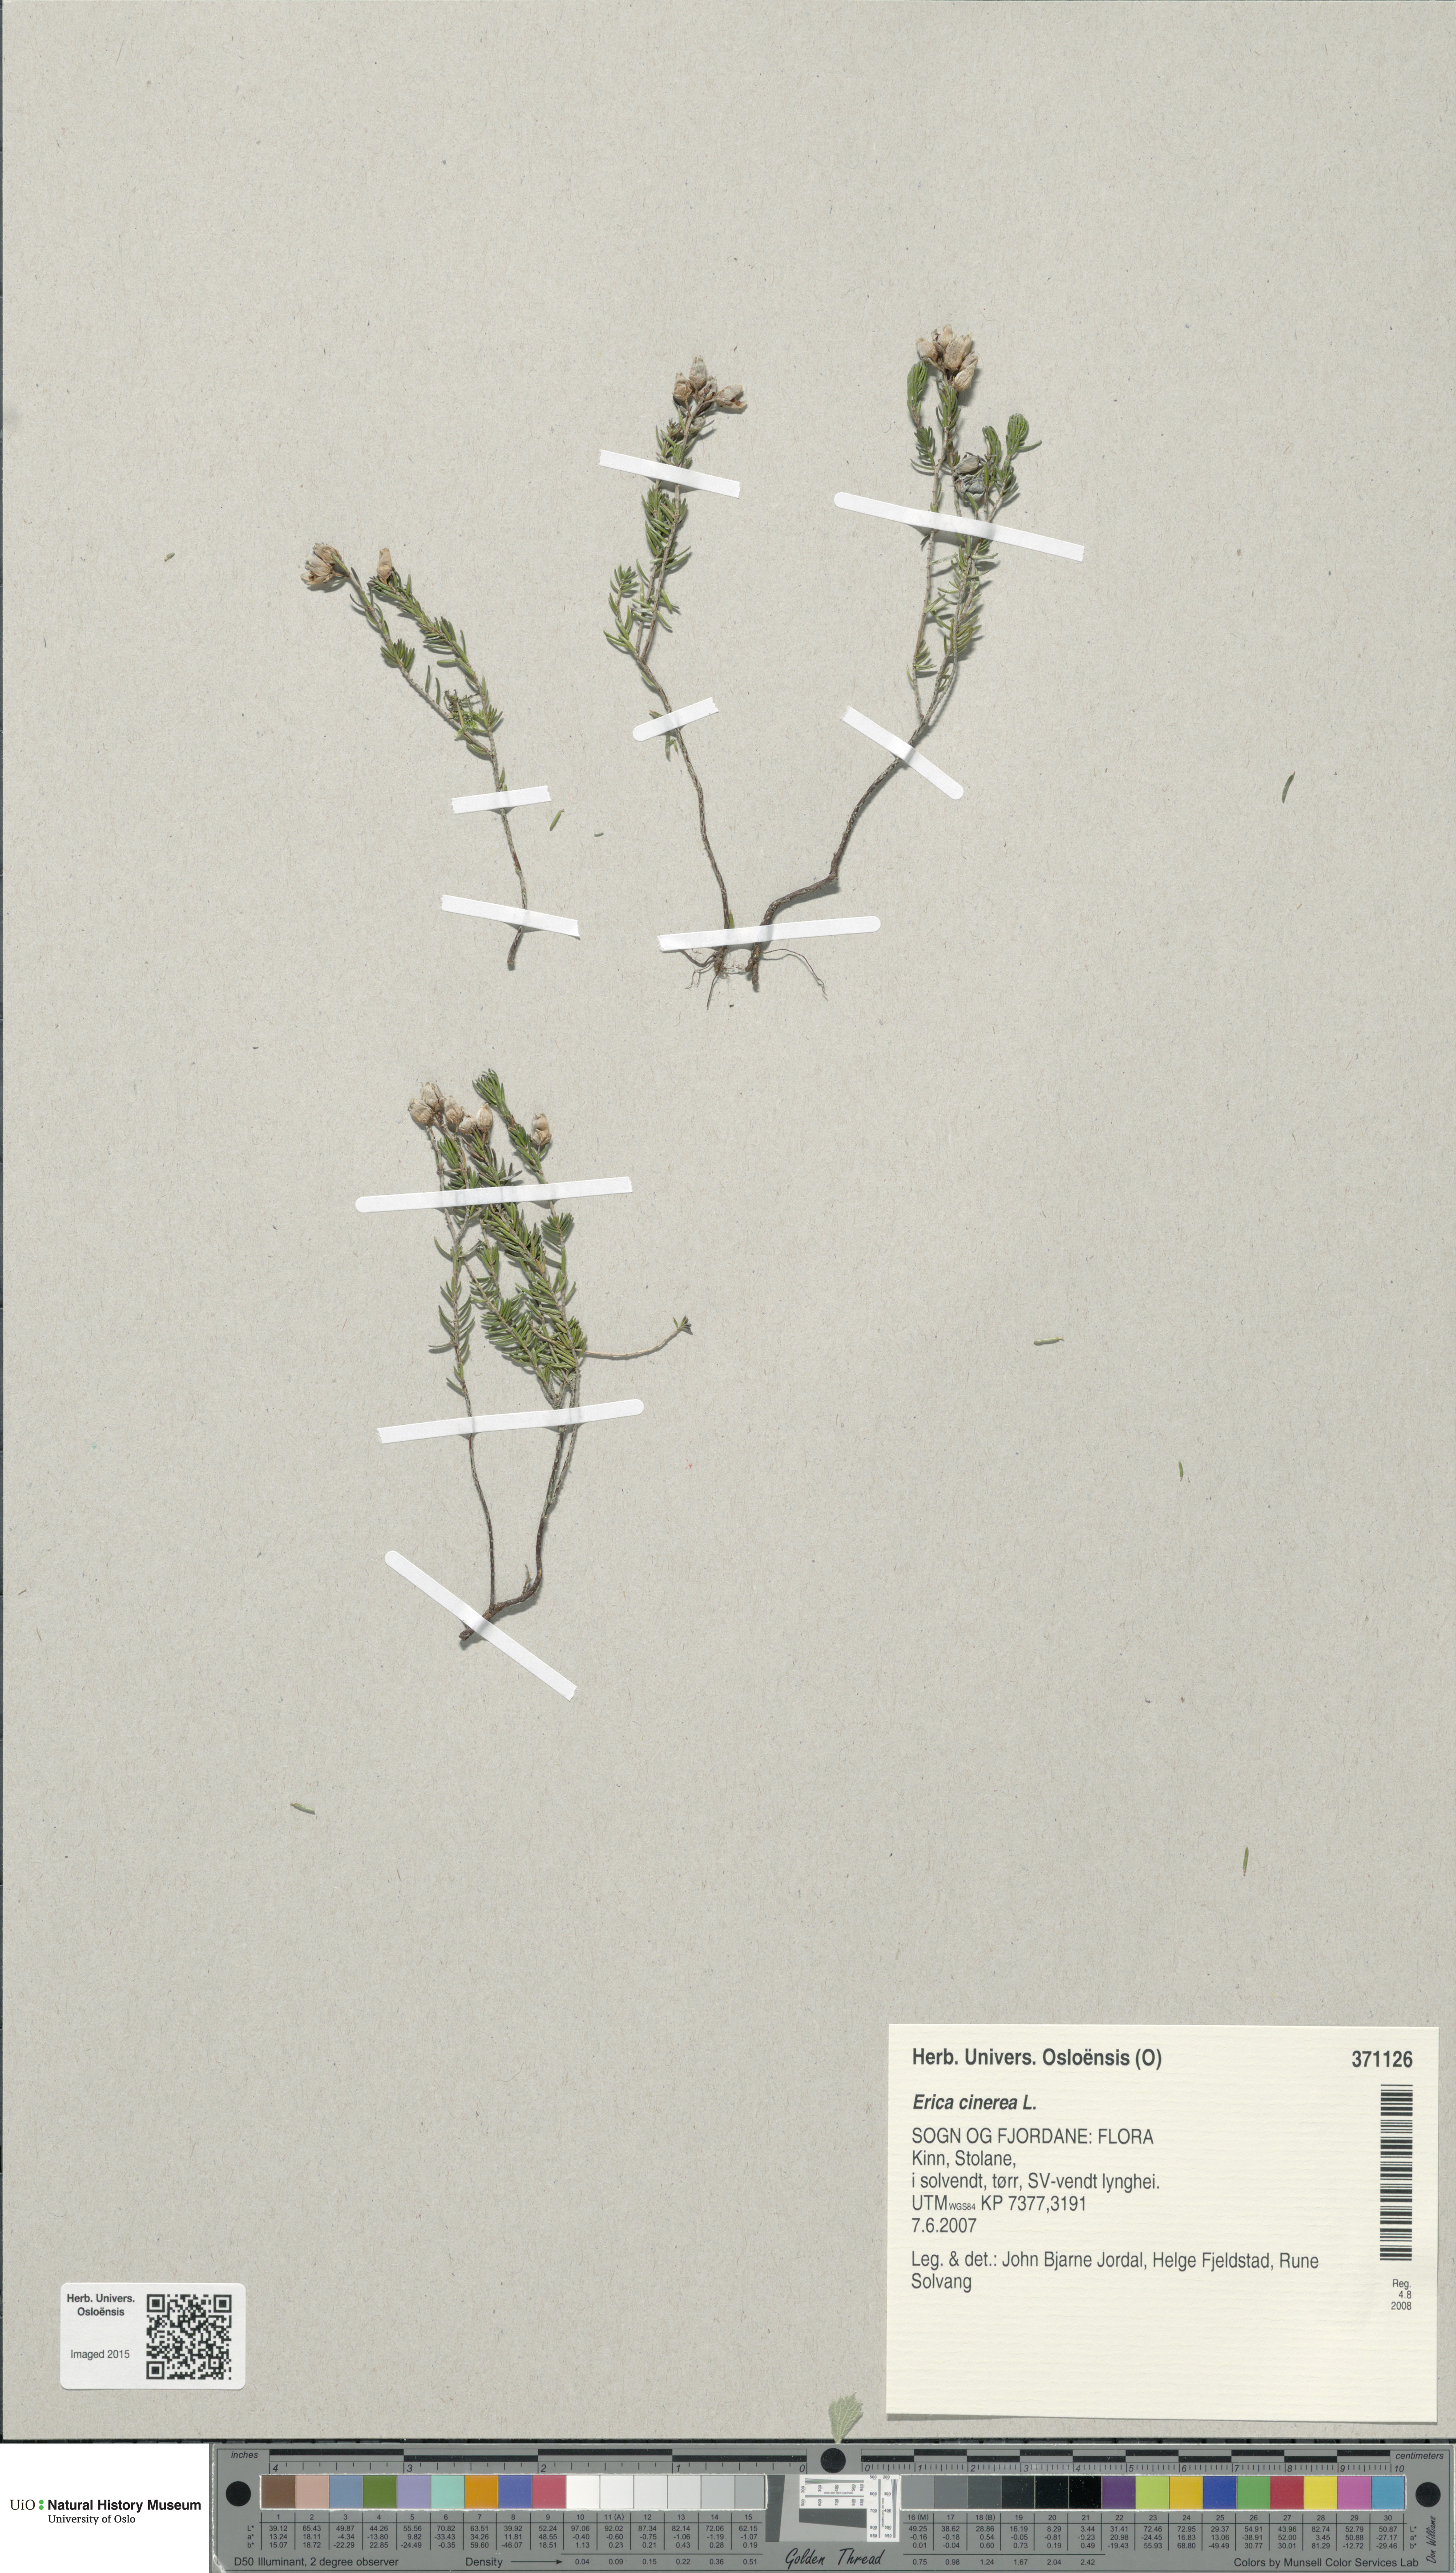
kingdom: Plantae
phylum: Tracheophyta
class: Magnoliopsida
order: Ericales
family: Ericaceae
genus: Erica
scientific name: Erica cinerea
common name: Bell heather
